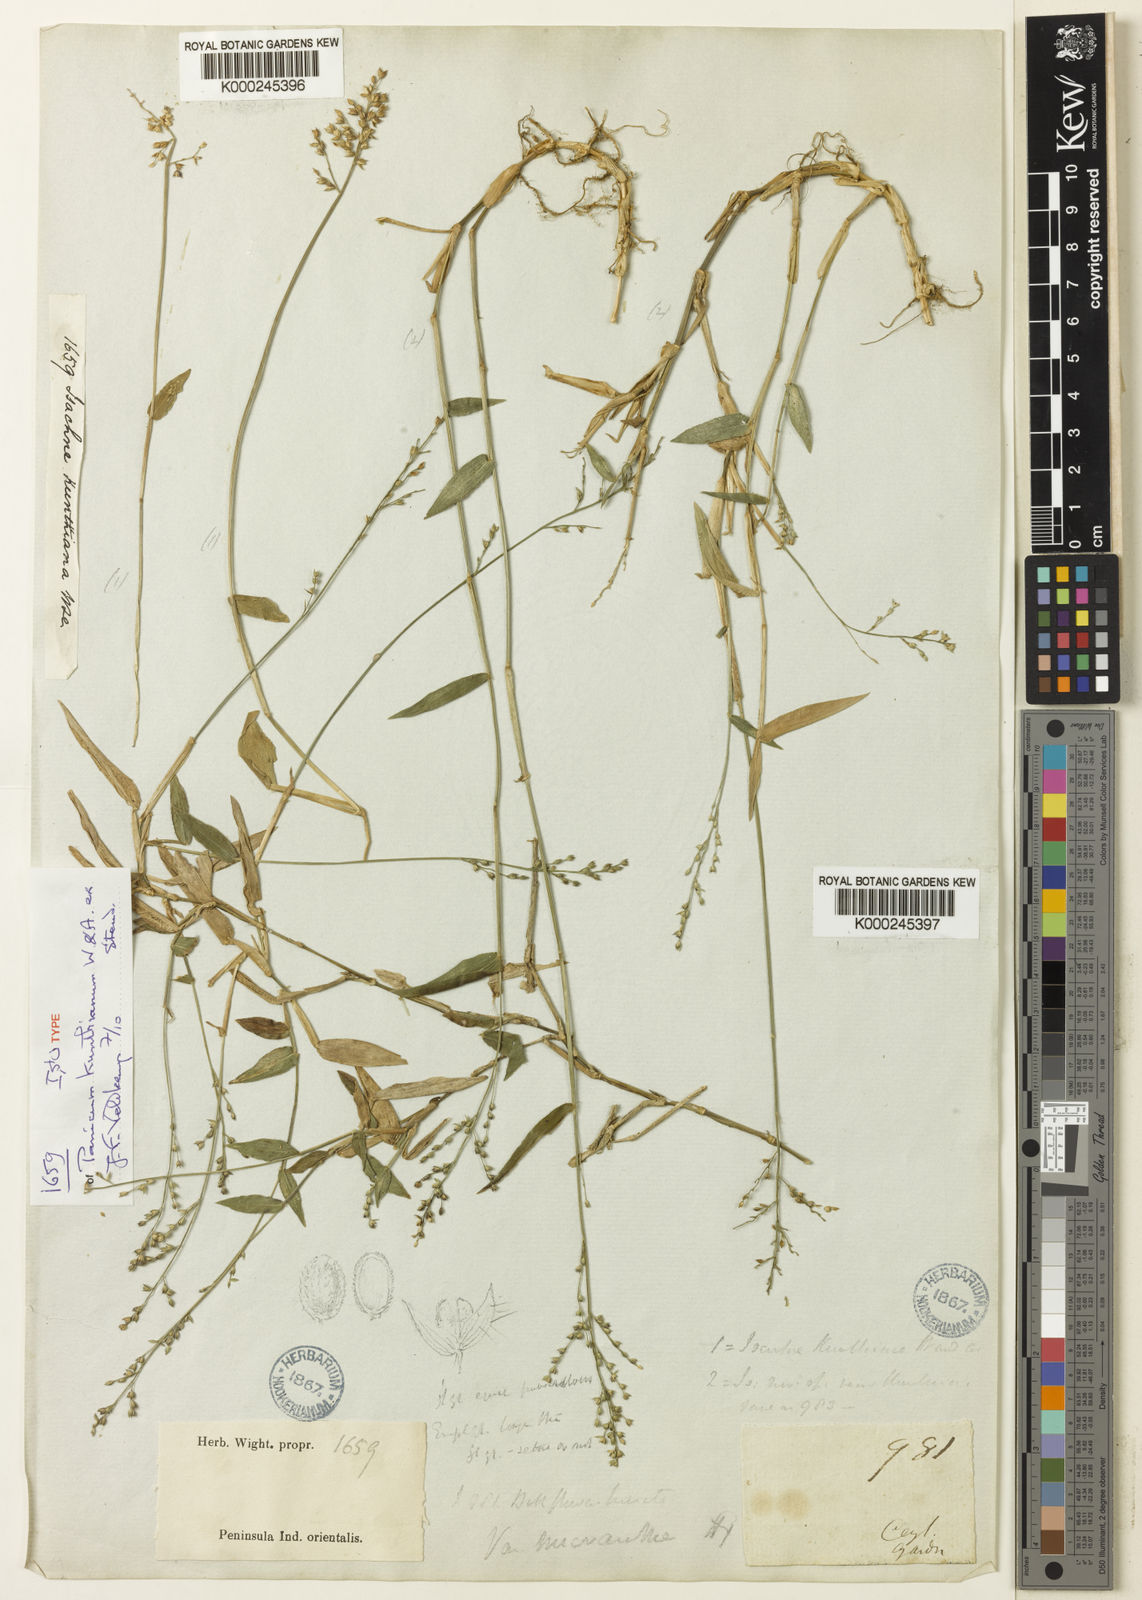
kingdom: Plantae
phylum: Tracheophyta
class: Liliopsida
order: Poales
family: Poaceae
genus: Isachne
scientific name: Isachne kunthiana
